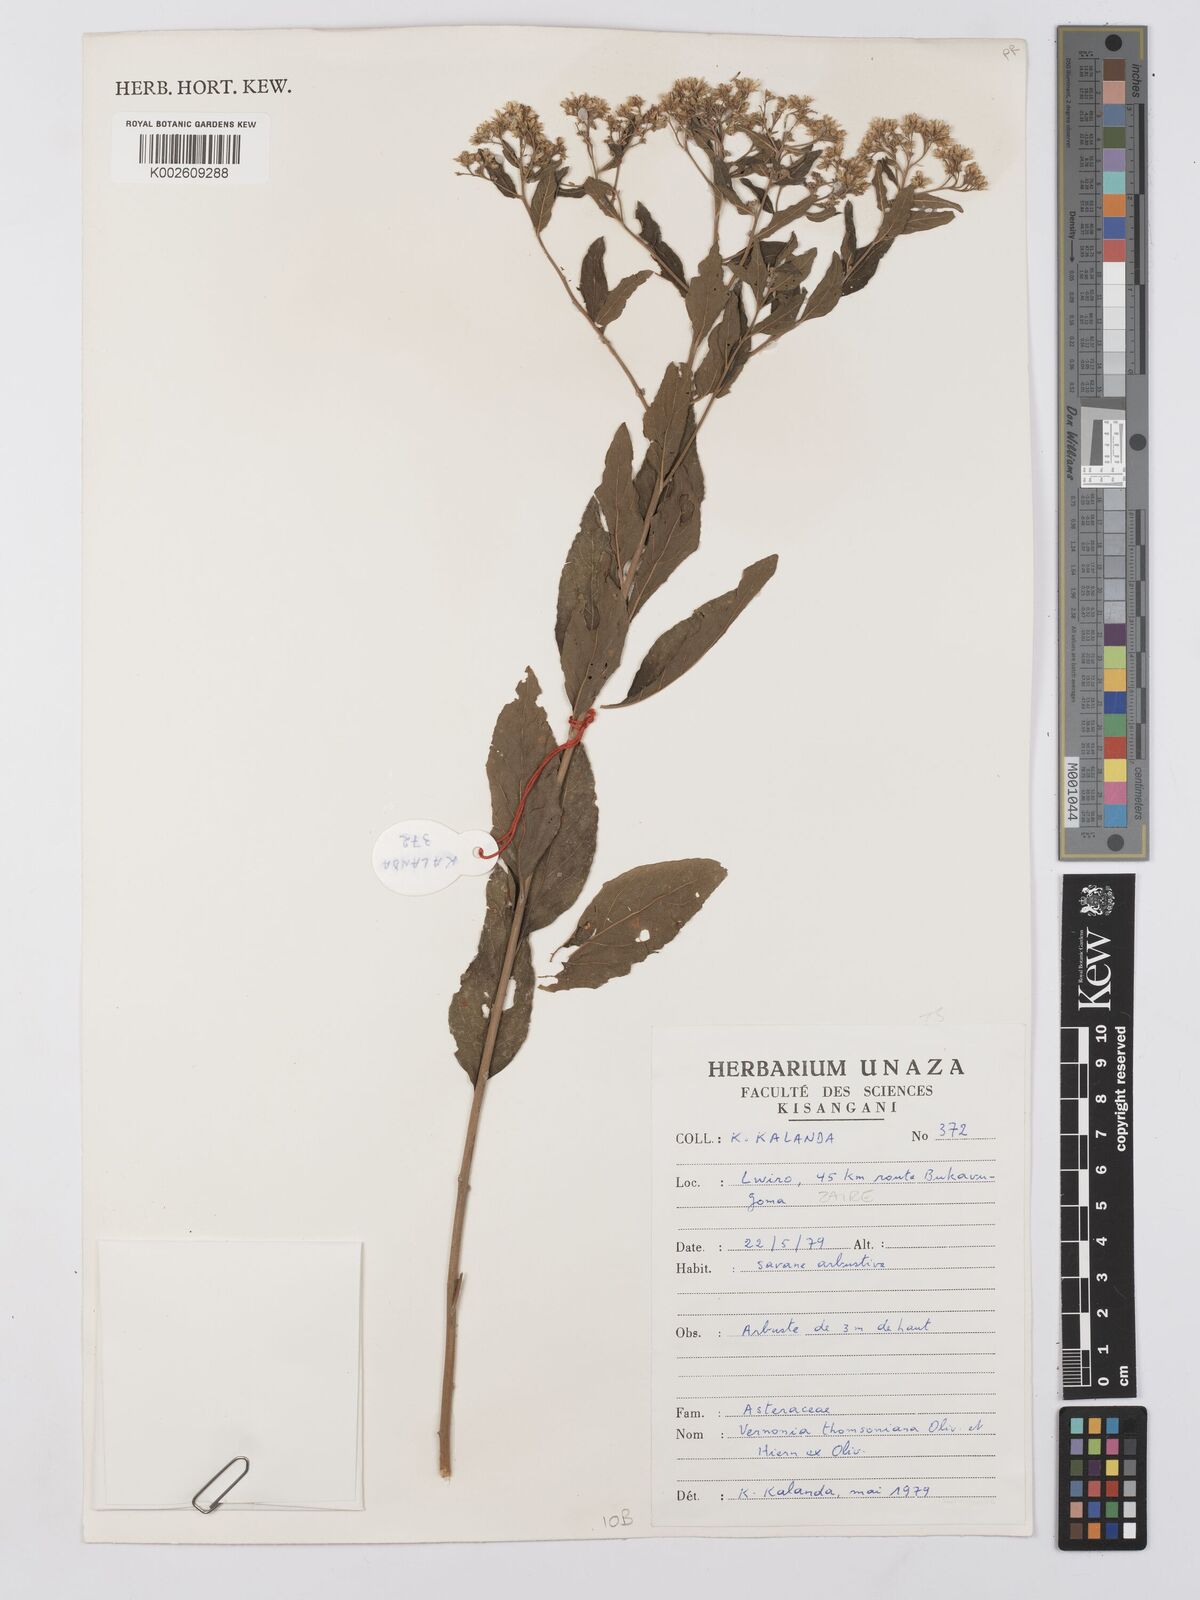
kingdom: Plantae
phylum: Tracheophyta
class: Magnoliopsida
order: Asterales
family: Asteraceae
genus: Gymnanthemum
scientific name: Gymnanthemum thomsonianum
